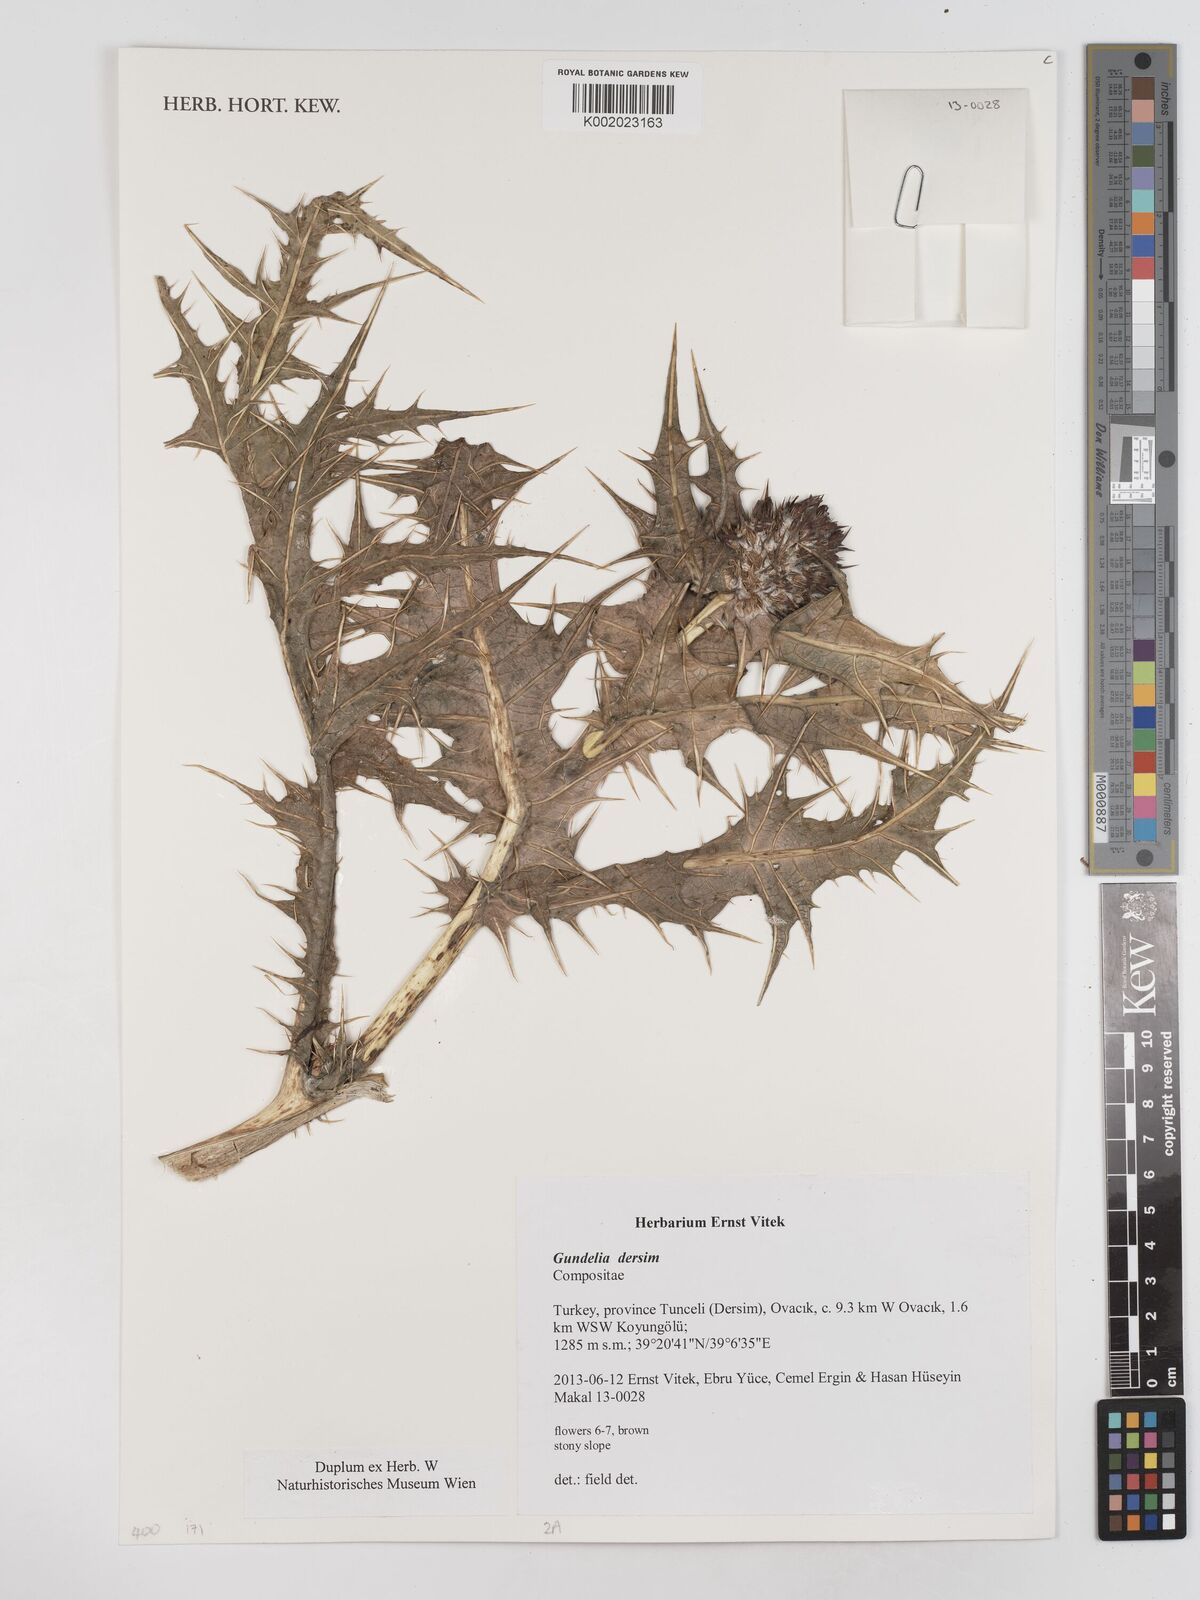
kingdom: Plantae
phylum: Tracheophyta
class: Magnoliopsida
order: Asterales
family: Asteraceae
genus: Gundelia
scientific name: Gundelia dersim
